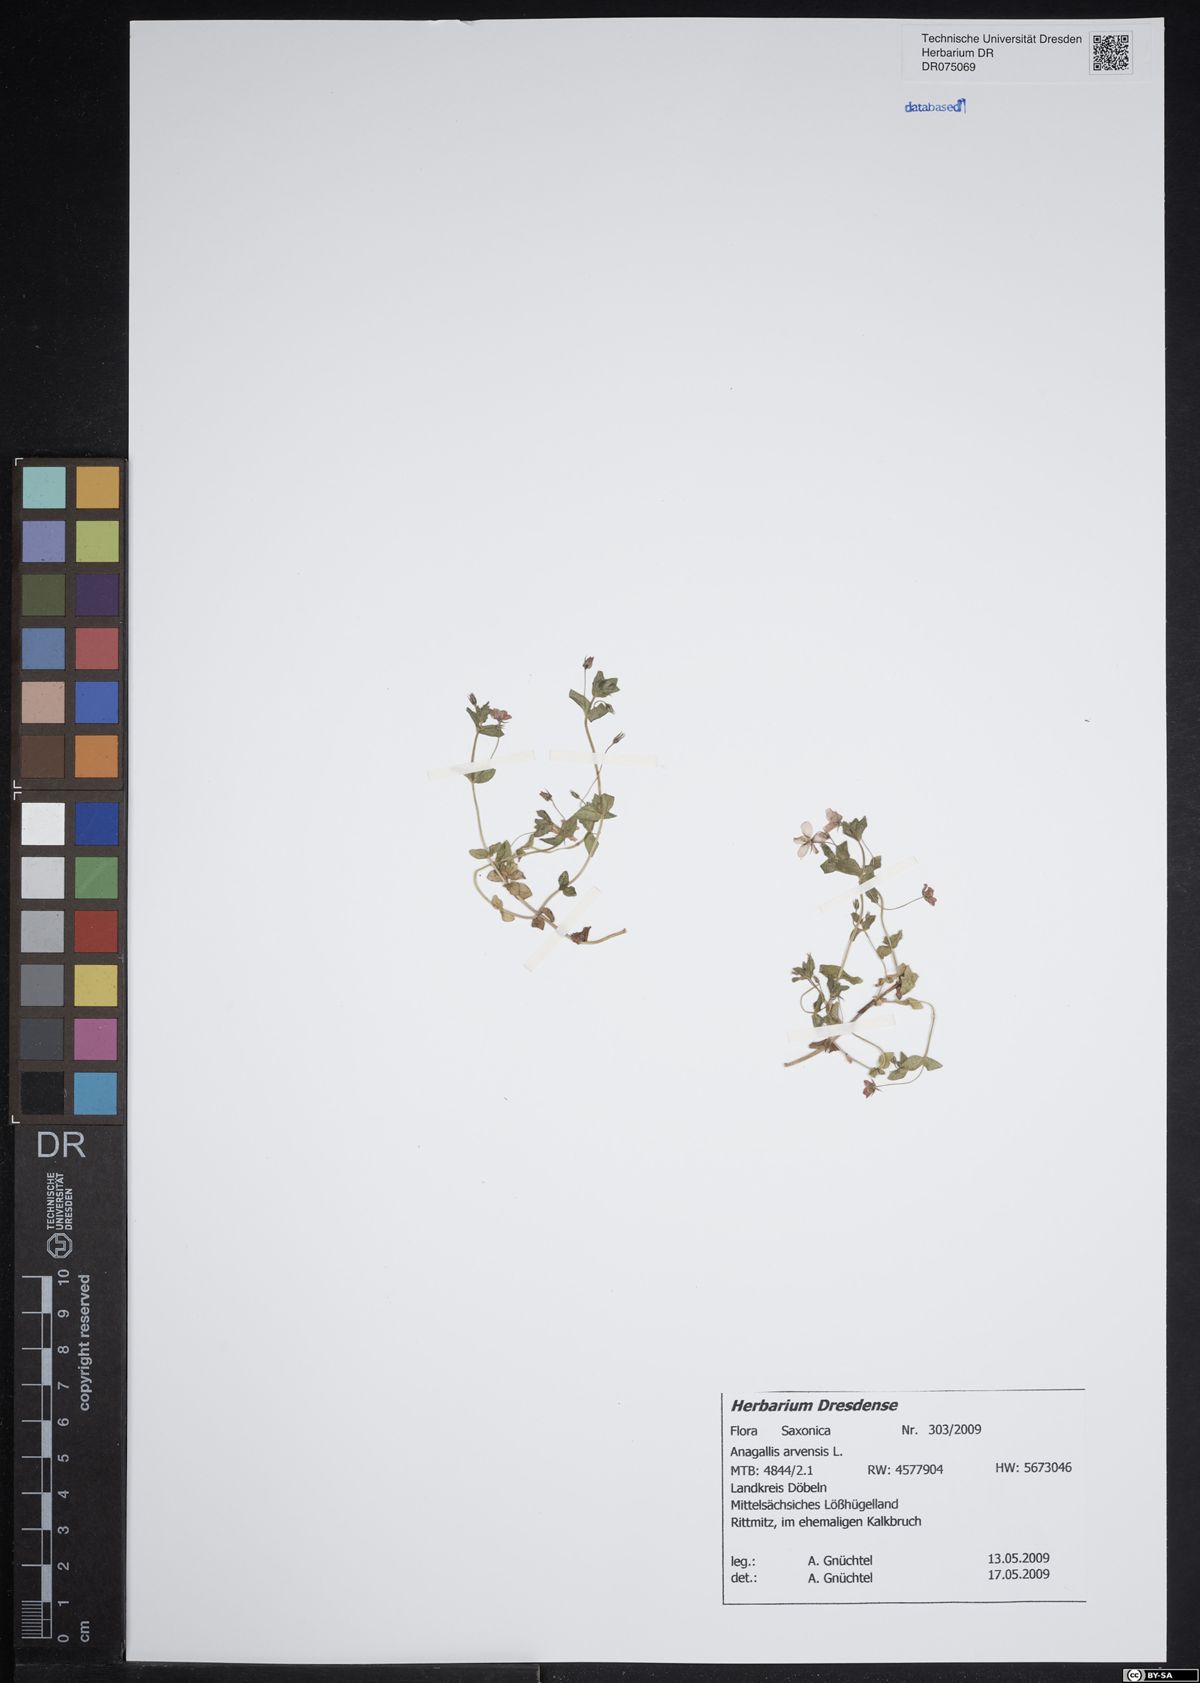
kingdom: Plantae
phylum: Tracheophyta
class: Magnoliopsida
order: Ericales
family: Primulaceae
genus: Lysimachia
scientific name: Lysimachia arvensis
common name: Scarlet pimpernel
